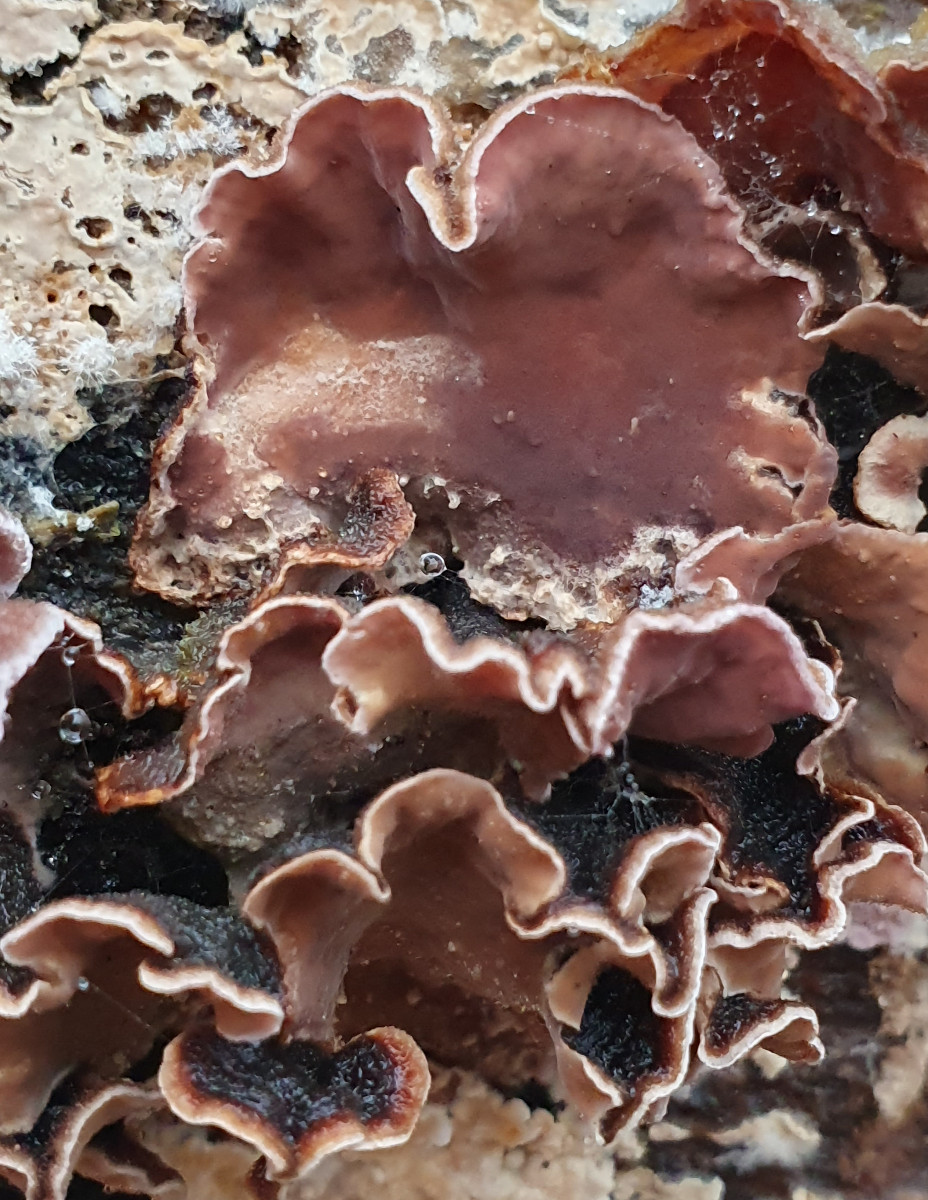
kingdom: Fungi
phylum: Basidiomycota
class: Agaricomycetes
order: Agaricales
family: Cyphellaceae
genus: Chondrostereum
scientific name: Chondrostereum purpureum
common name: purpurlædersvamp
